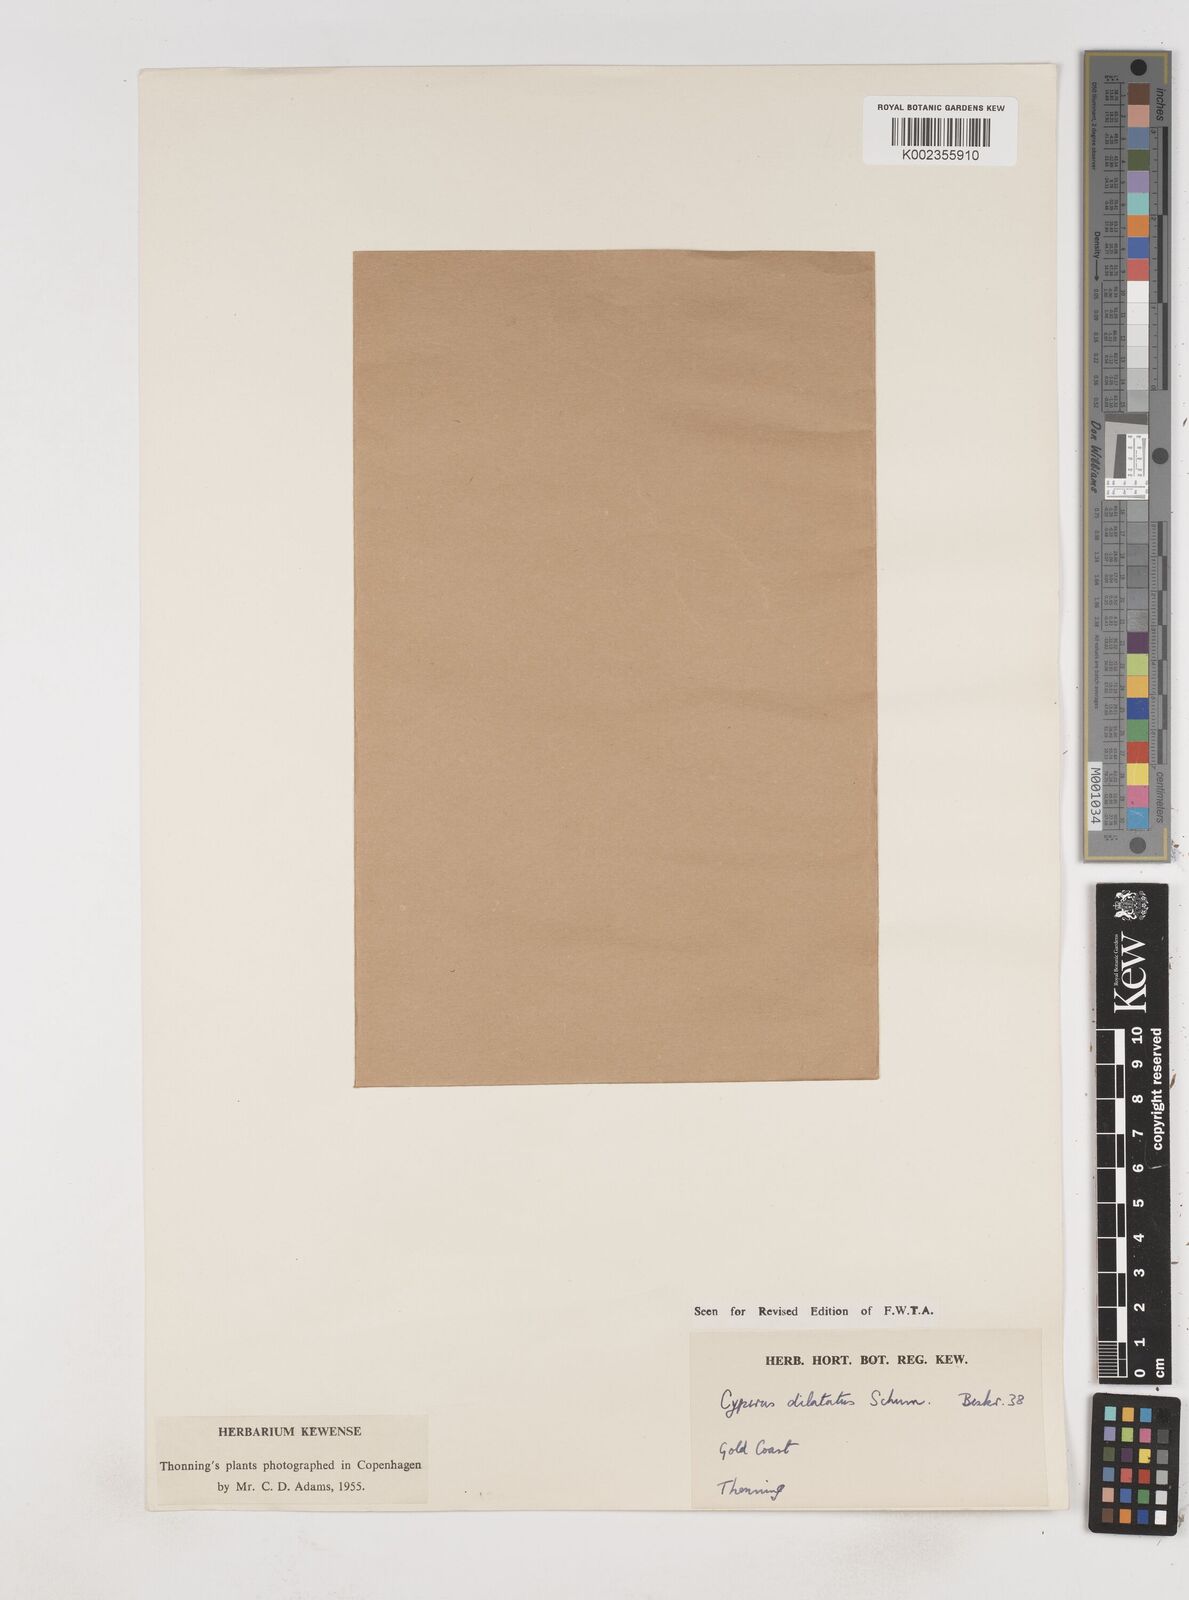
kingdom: Plantae
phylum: Tracheophyta
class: Liliopsida
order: Poales
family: Cyperaceae
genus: Cyperus
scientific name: Cyperus dilatatus
